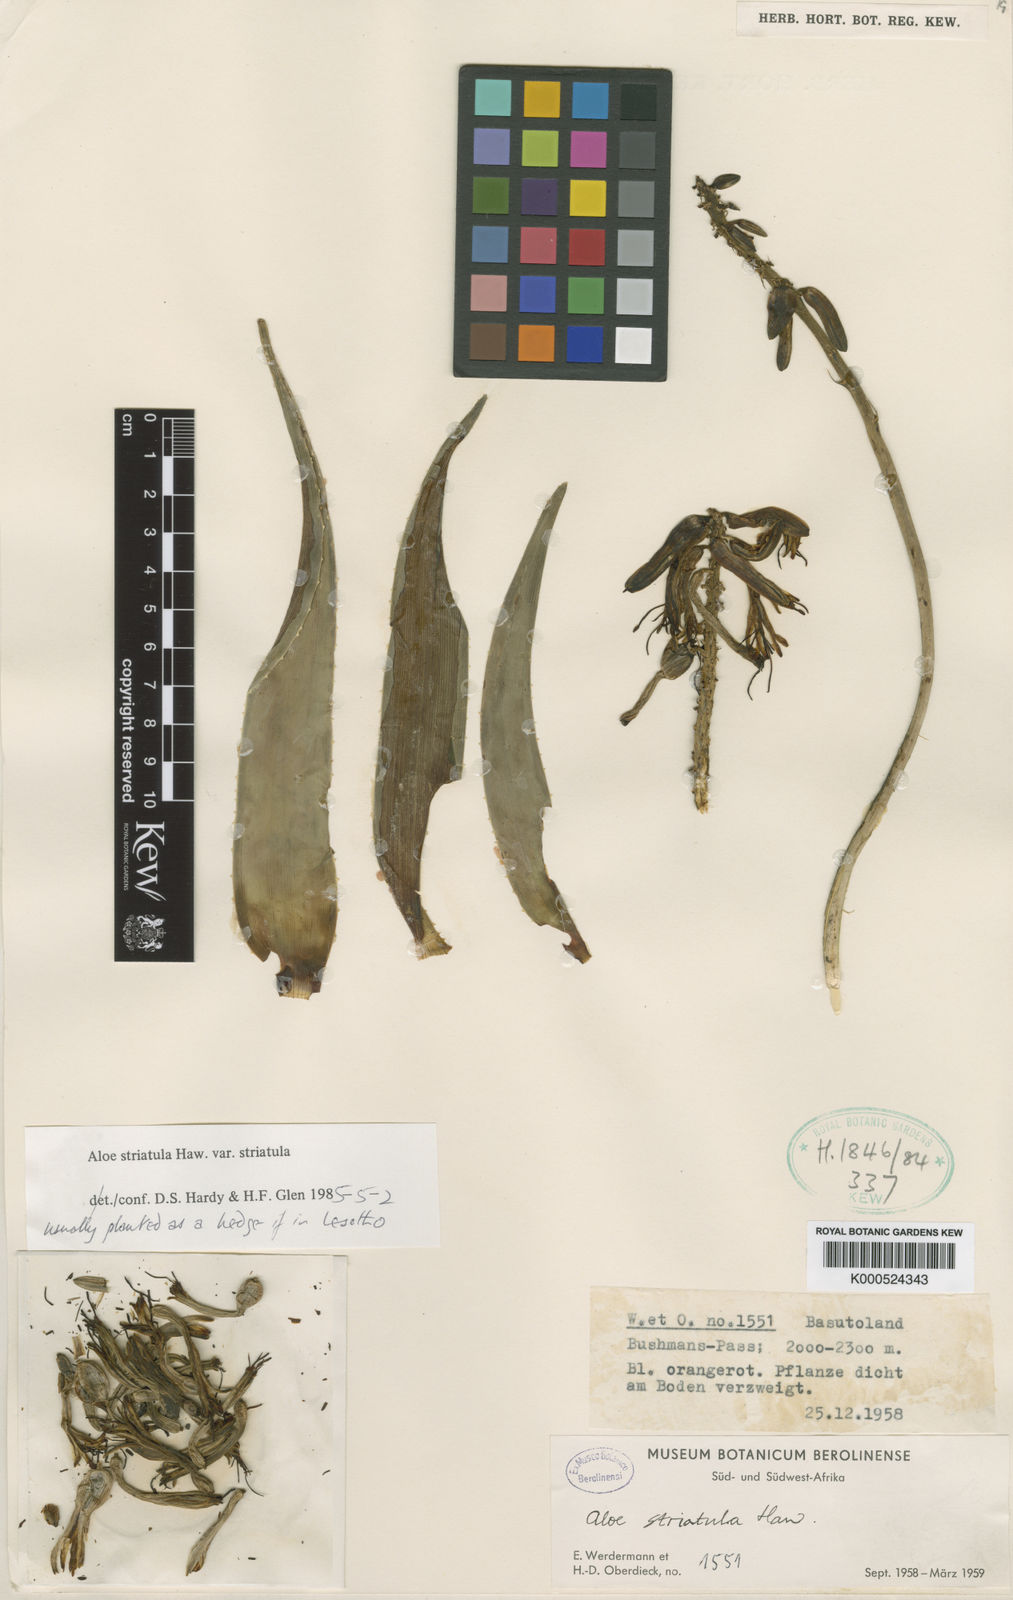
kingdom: Plantae
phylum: Tracheophyta
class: Liliopsida
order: Asparagales
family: Asphodelaceae
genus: Aloiampelos
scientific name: Aloiampelos striatula
